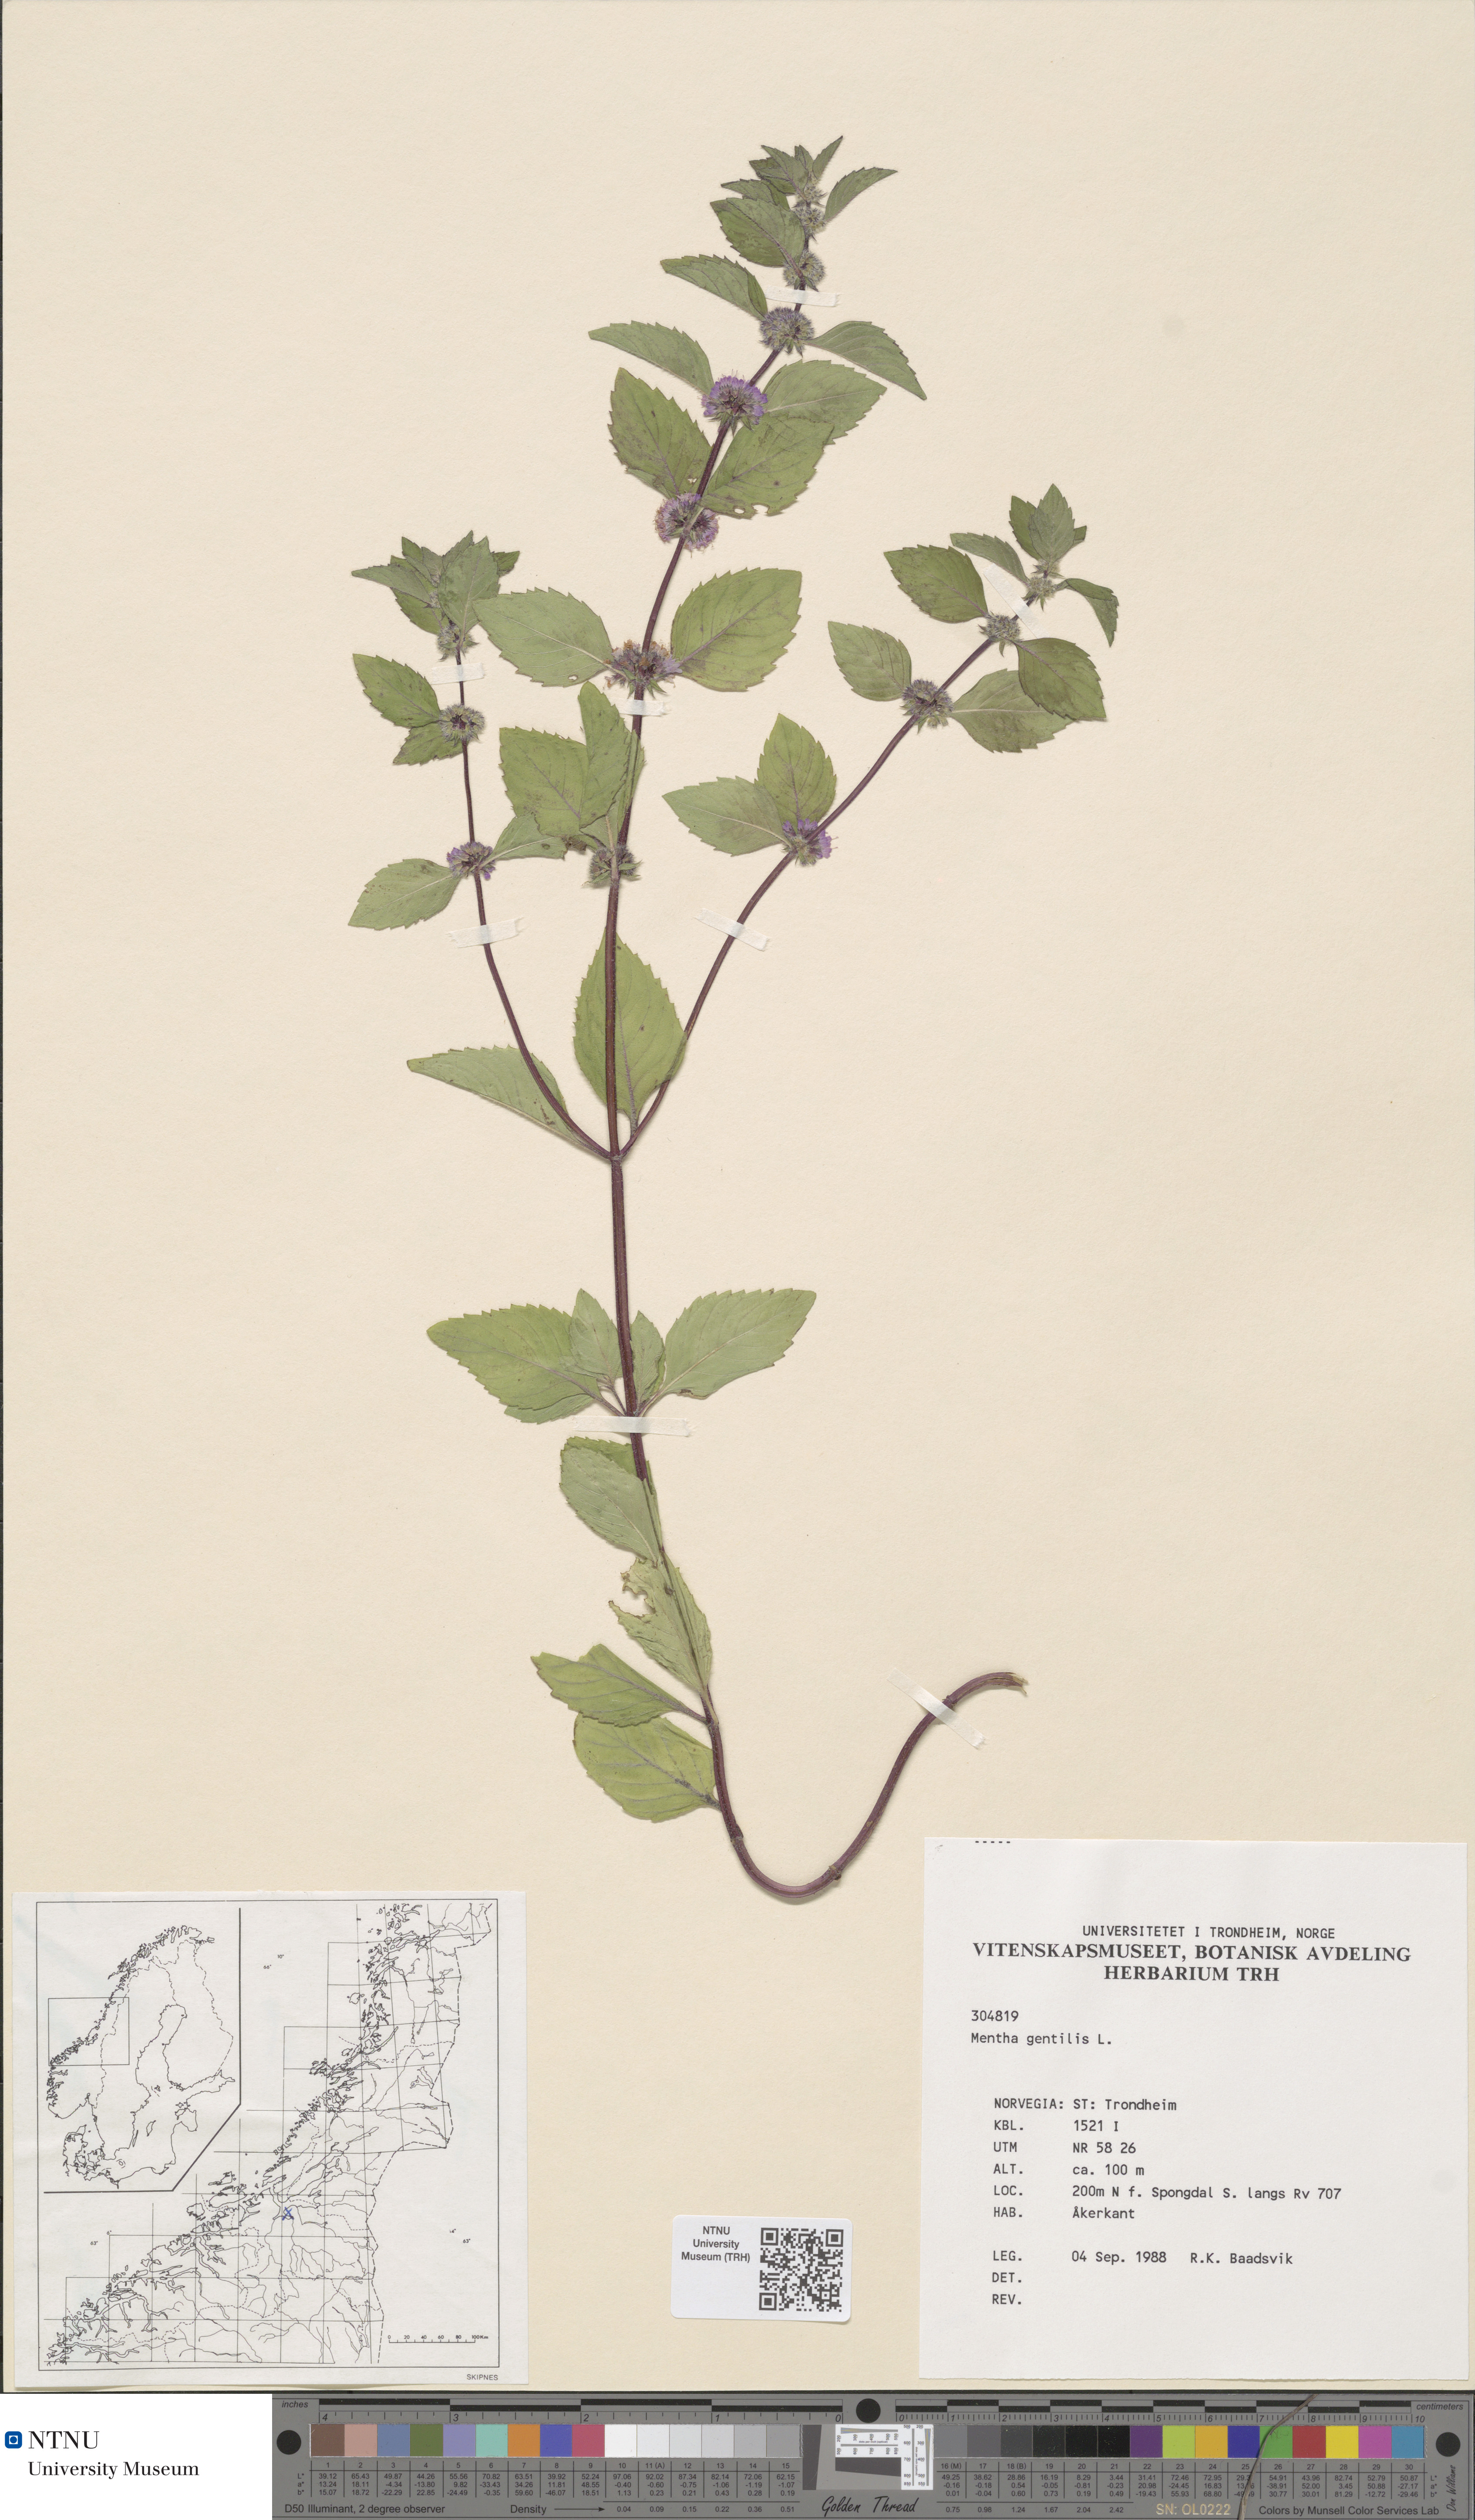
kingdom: Plantae
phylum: Tracheophyta
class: Magnoliopsida
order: Lamiales
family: Lamiaceae
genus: Mentha
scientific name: Mentha arvensis
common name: Corn mint
